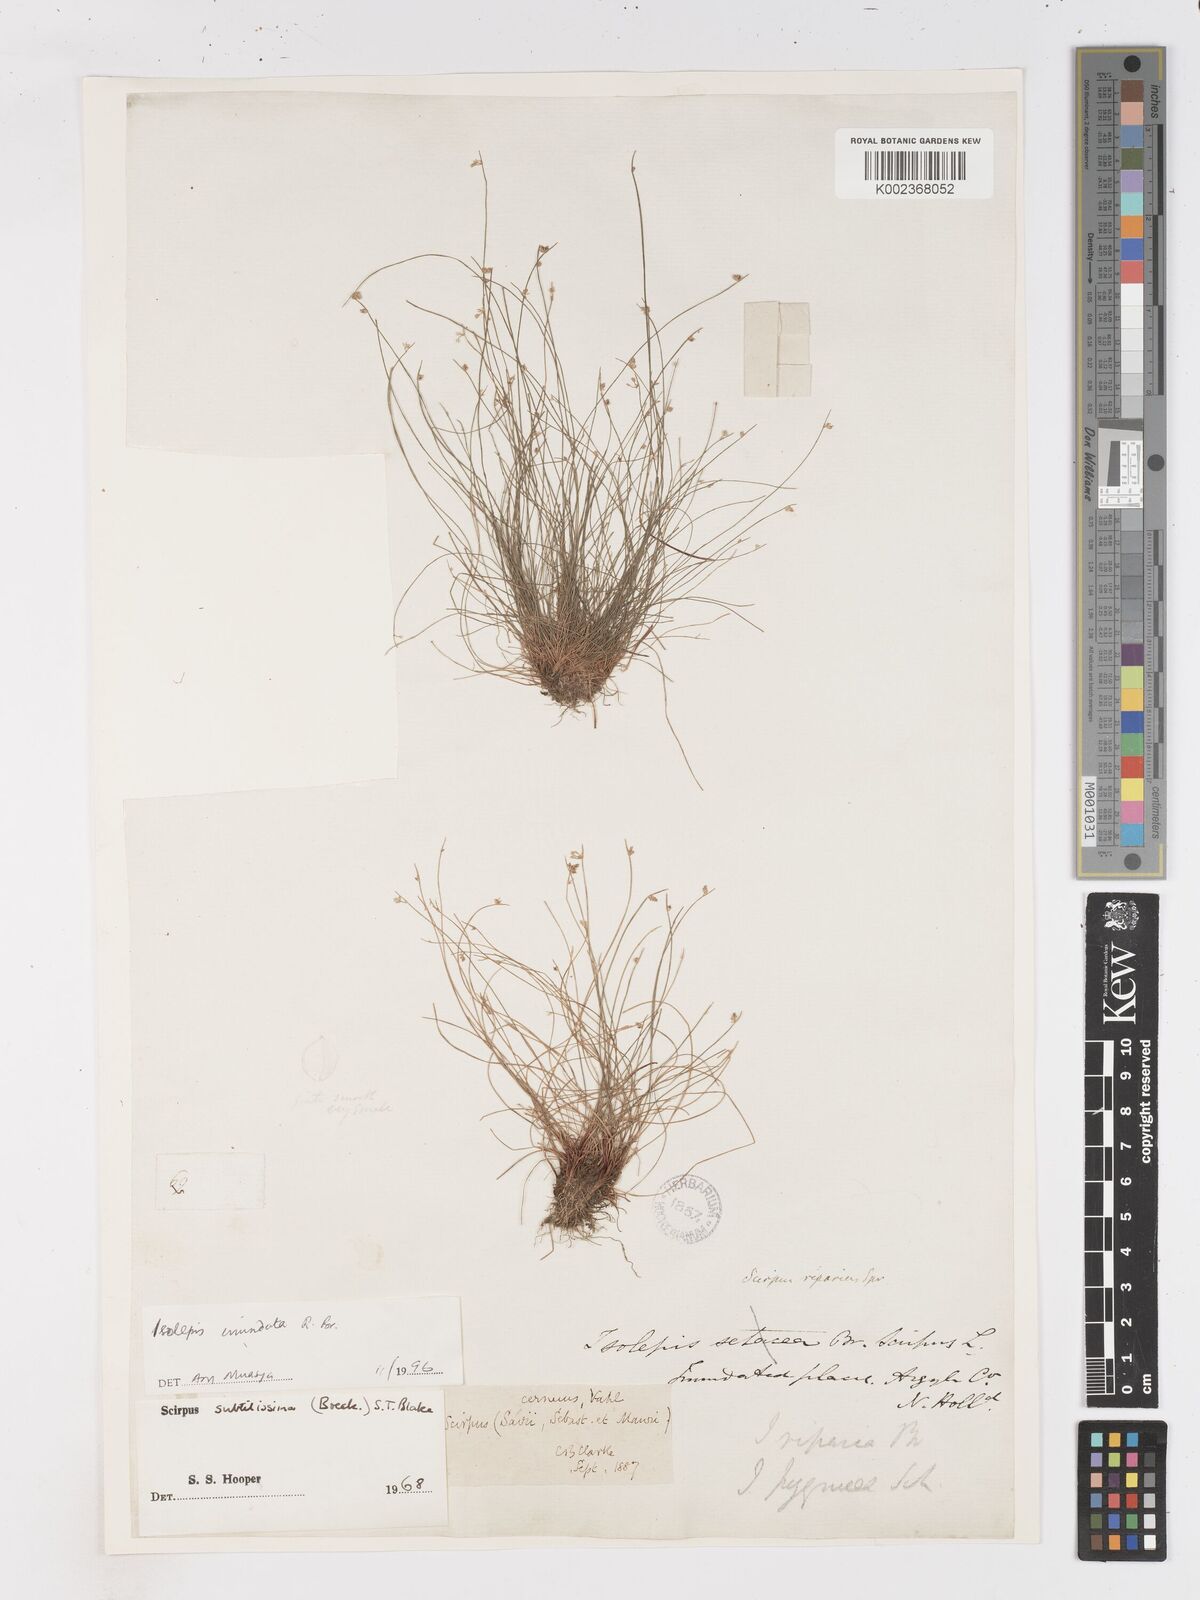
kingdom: Plantae
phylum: Tracheophyta
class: Liliopsida
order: Poales
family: Cyperaceae
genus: Isolepis
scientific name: Isolepis inundata
